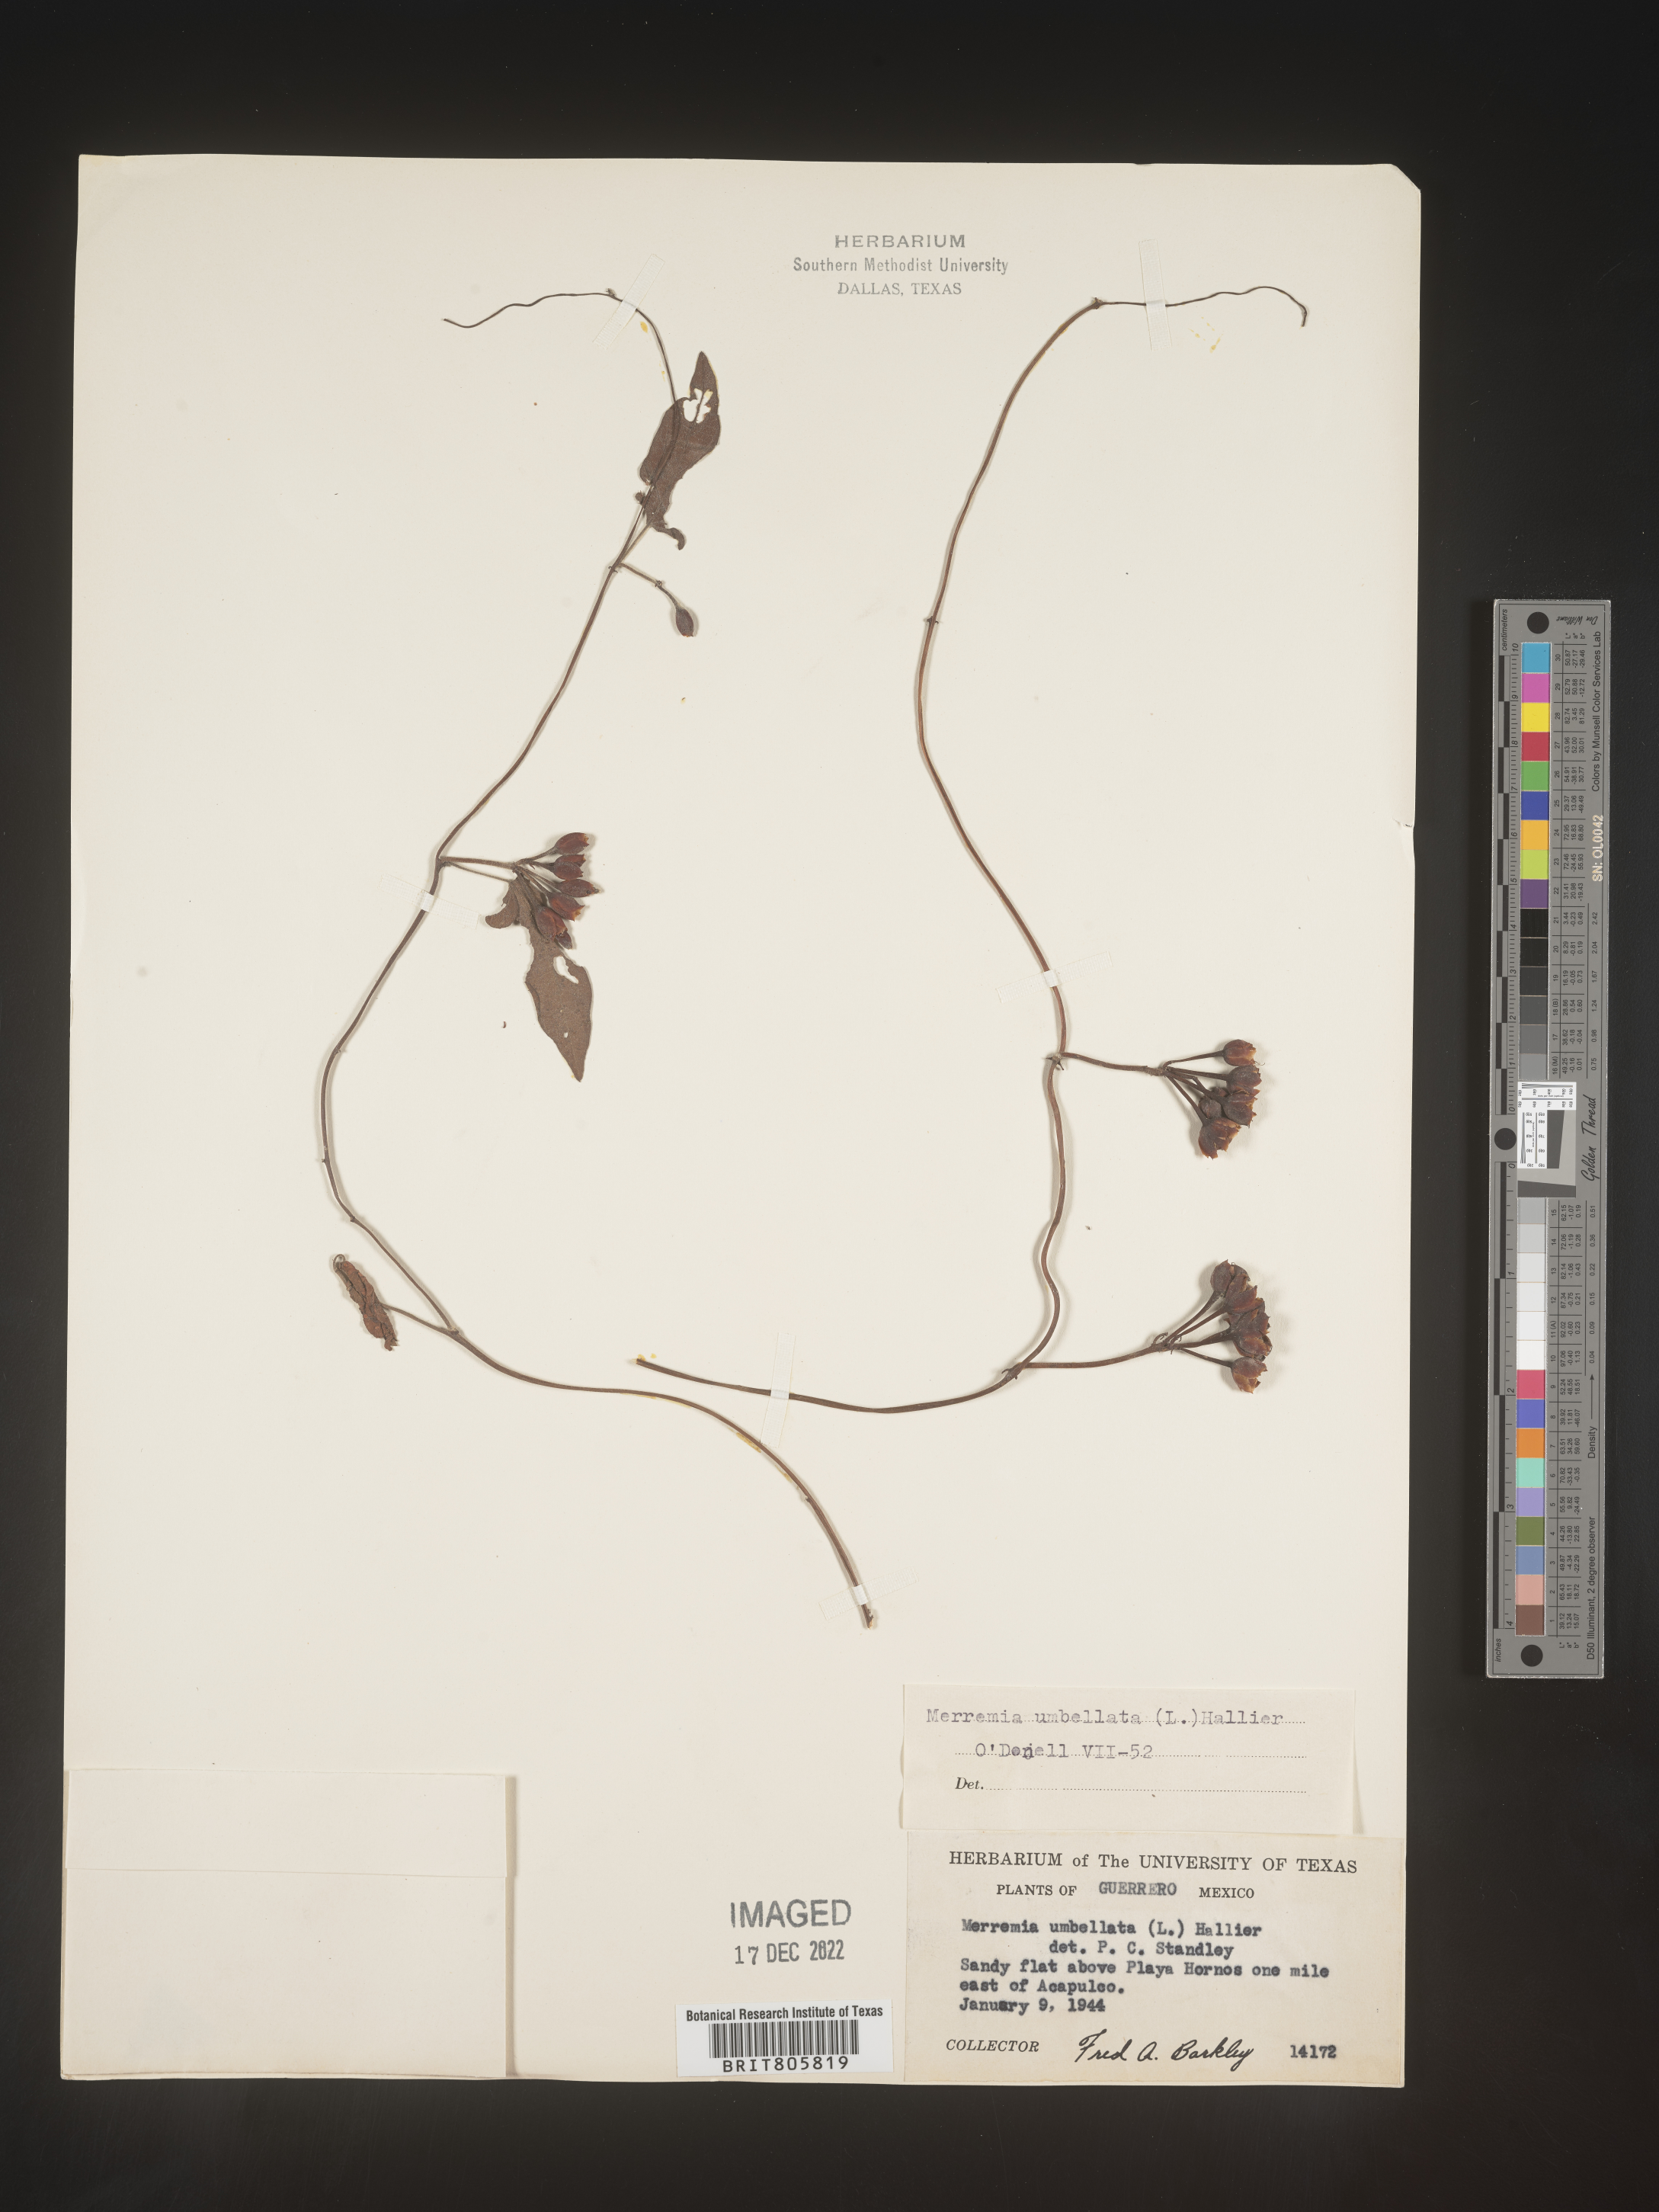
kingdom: Plantae
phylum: Tracheophyta
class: Magnoliopsida
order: Solanales
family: Convolvulaceae
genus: Merremia
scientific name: Merremia
